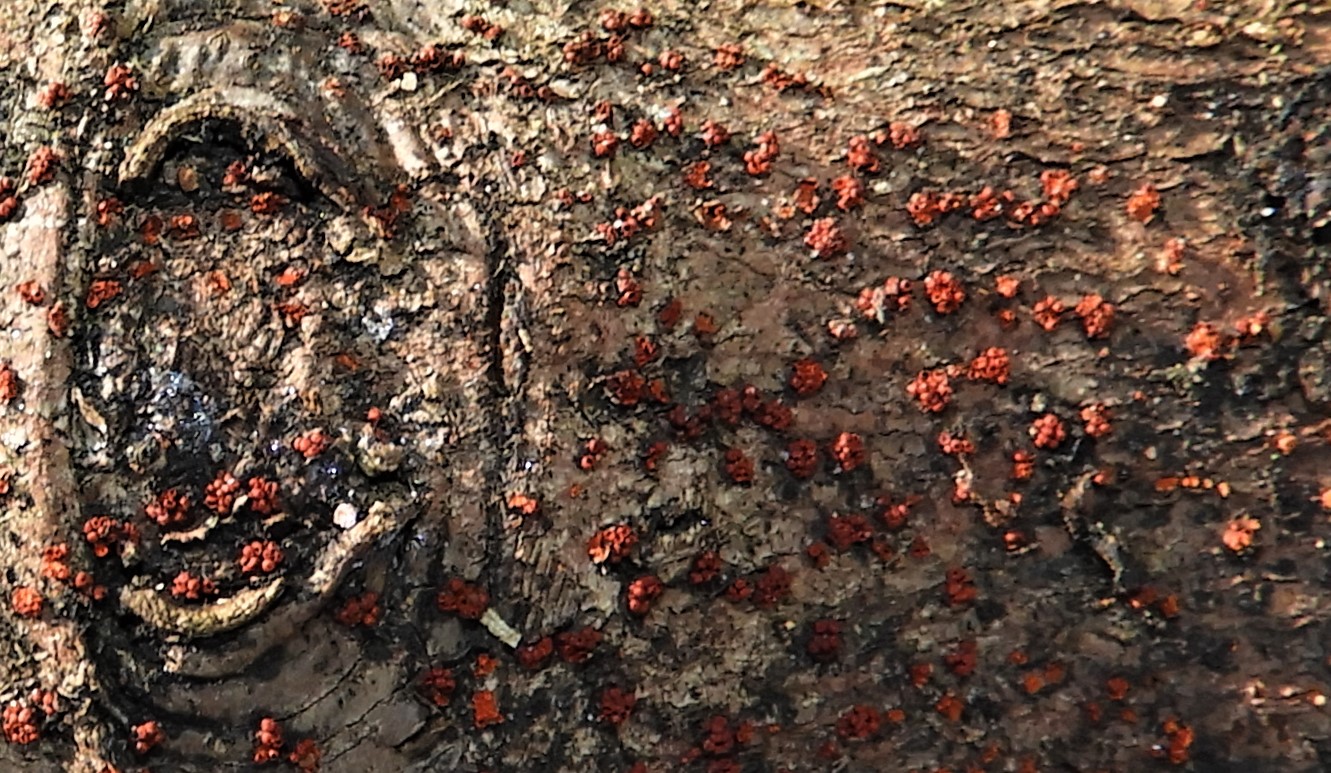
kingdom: Fungi
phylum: Ascomycota
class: Sordariomycetes
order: Hypocreales
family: Nectriaceae
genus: Neonectria
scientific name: Neonectria coccinea
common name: bøgebark-cinnobersvamp
